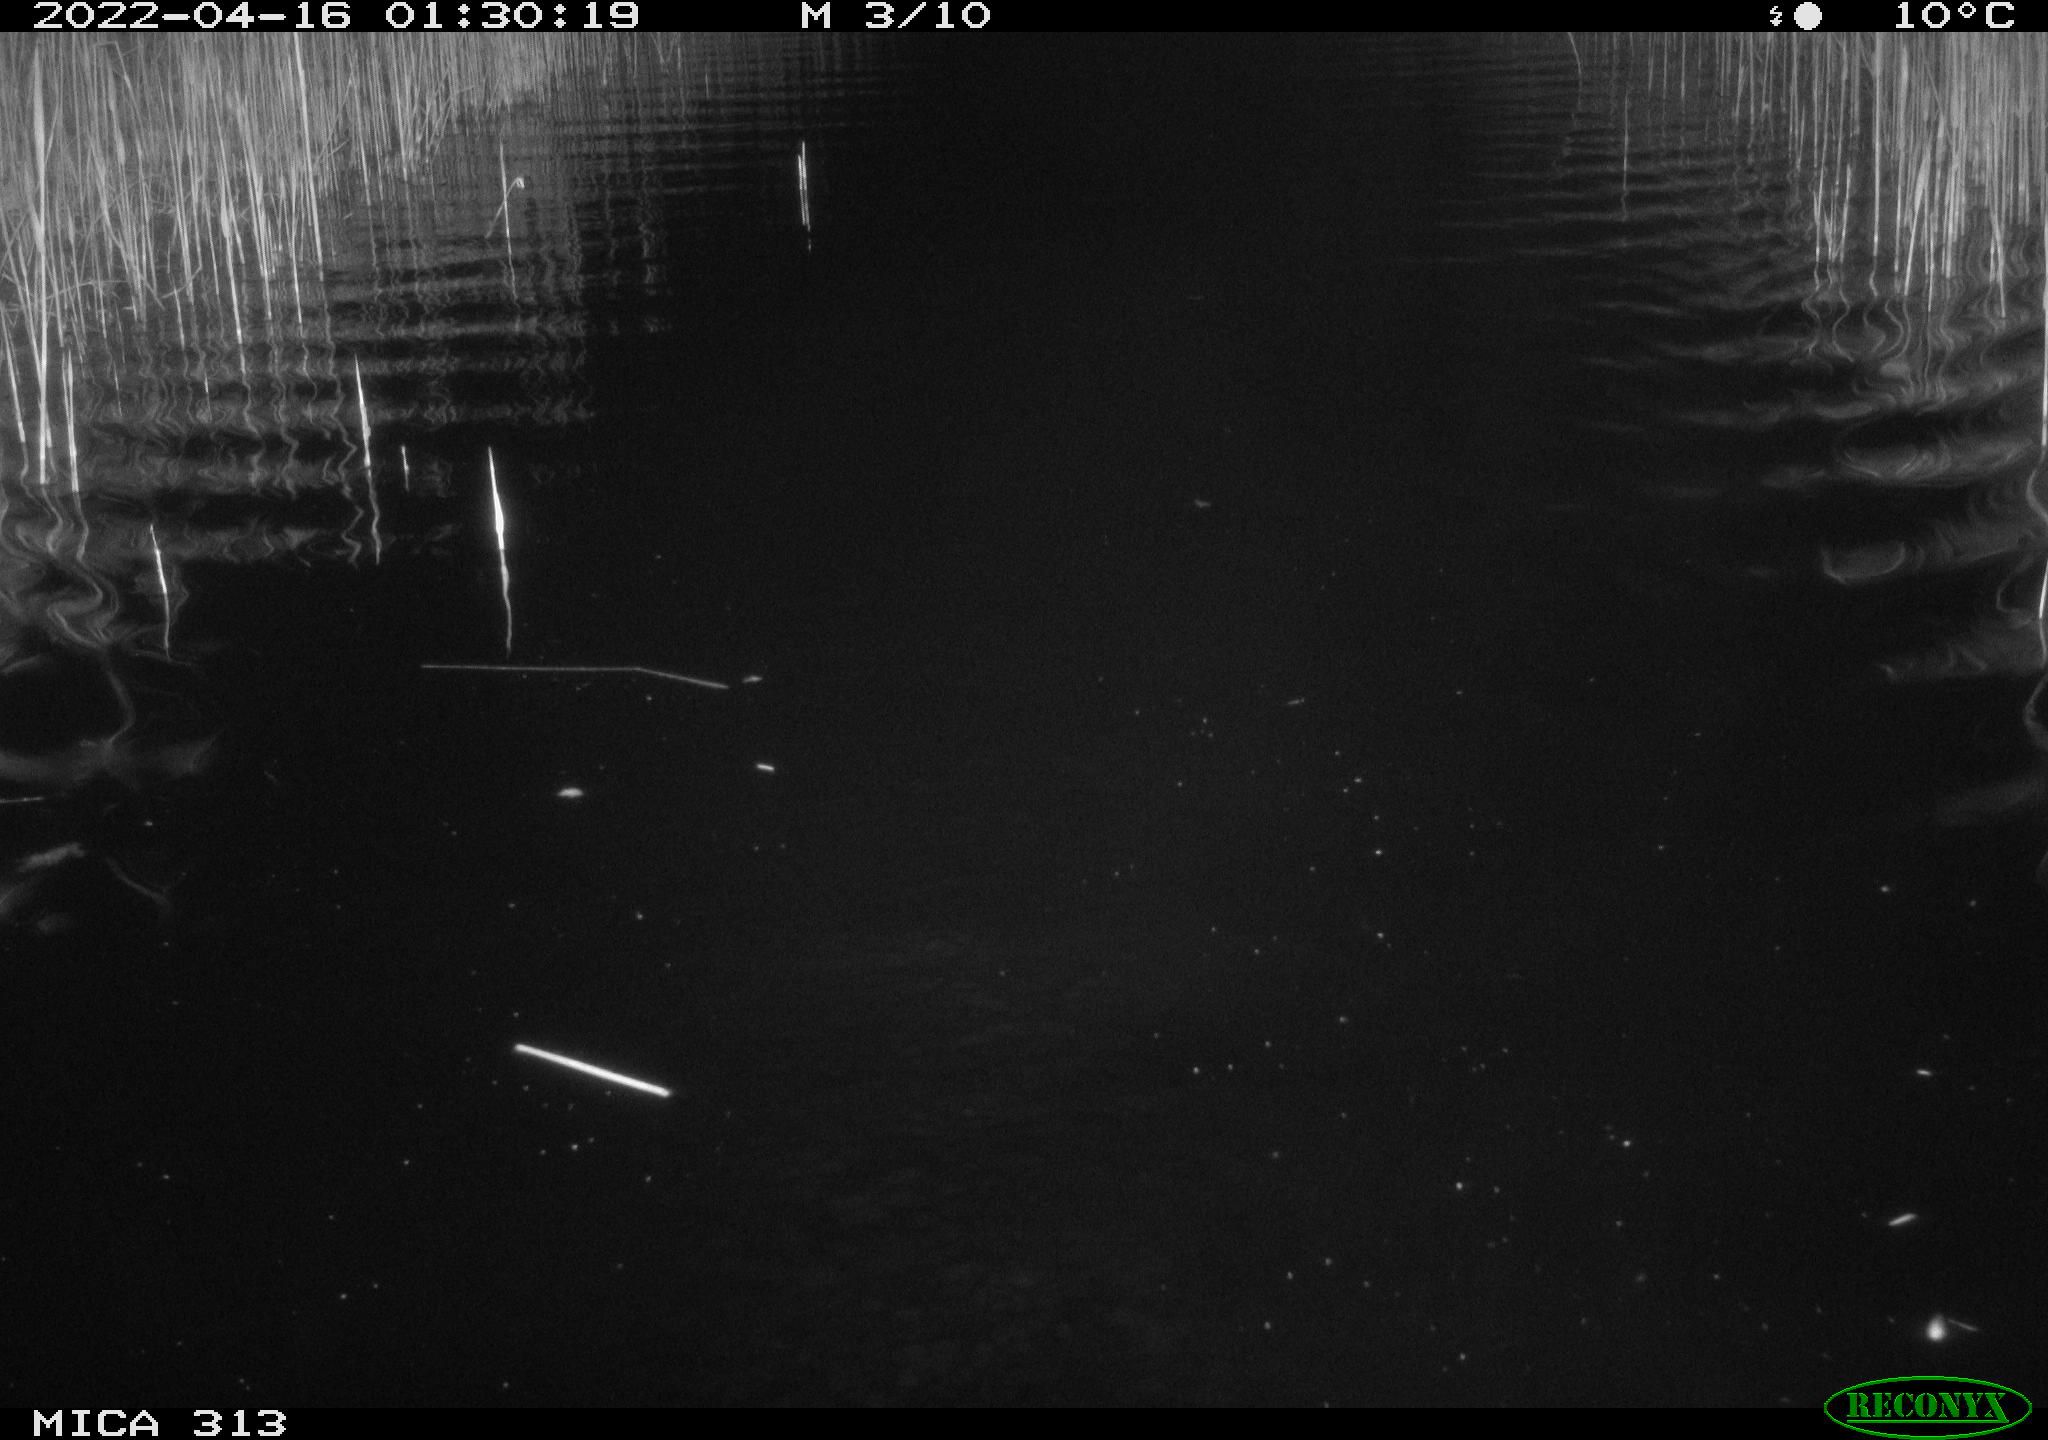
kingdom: Animalia
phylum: Chordata
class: Mammalia
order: Rodentia
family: Cricetidae
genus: Ondatra
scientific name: Ondatra zibethicus
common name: Muskrat
